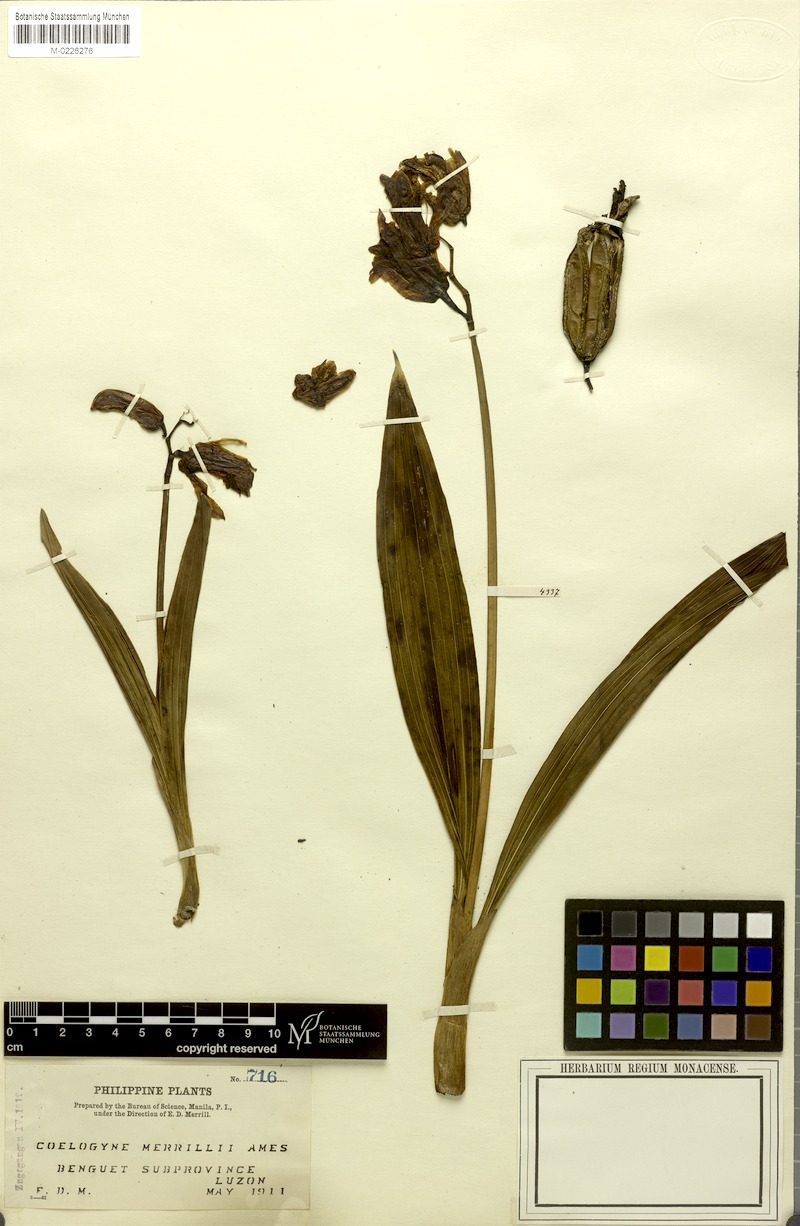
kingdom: Plantae
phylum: Tracheophyta
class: Liliopsida
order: Asparagales
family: Orchidaceae
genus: Coelogyne
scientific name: Coelogyne merrillii
